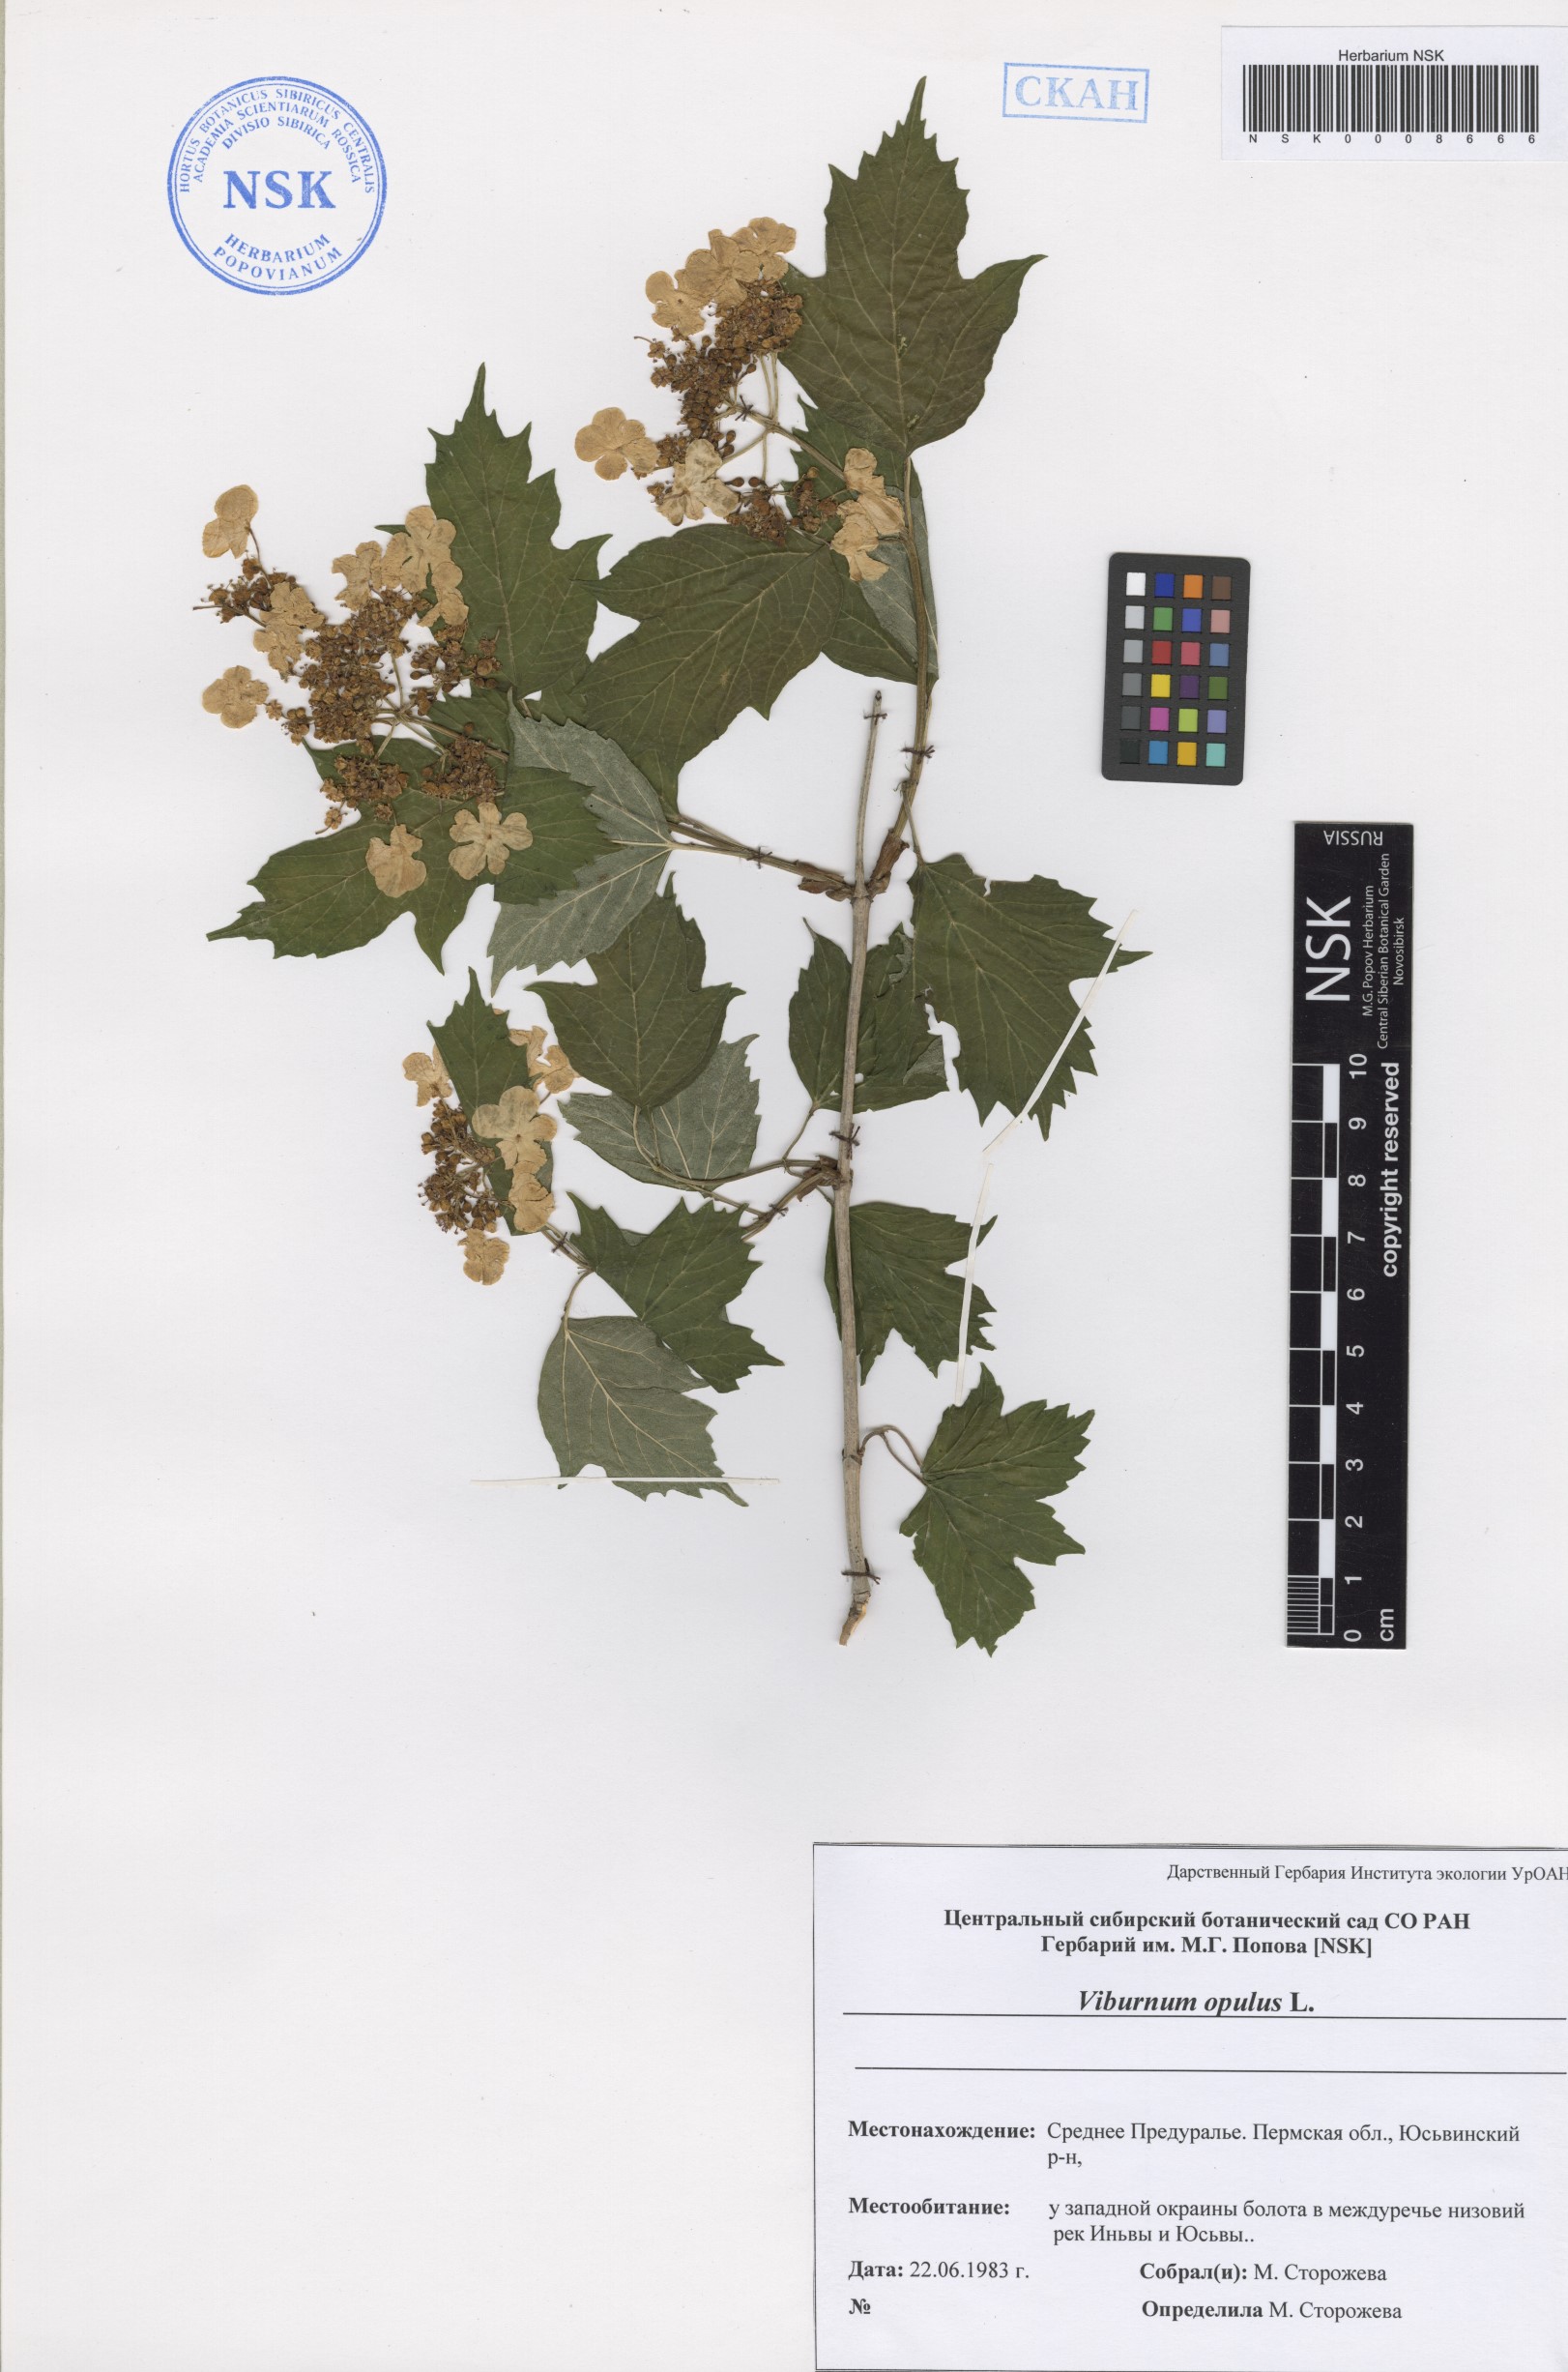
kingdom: Plantae
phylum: Tracheophyta
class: Magnoliopsida
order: Dipsacales
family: Viburnaceae
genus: Viburnum
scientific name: Viburnum opulus
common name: Guelder-rose
